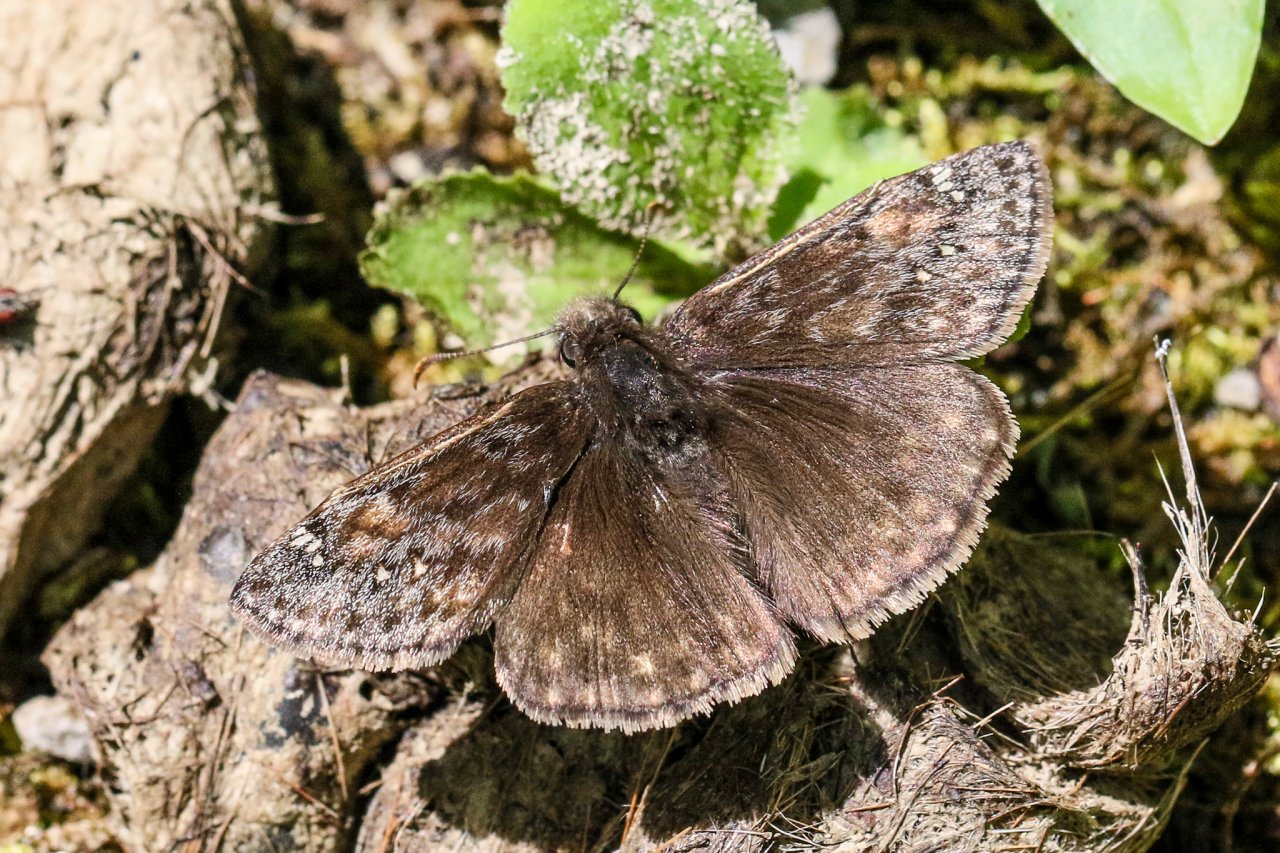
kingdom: Animalia
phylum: Arthropoda
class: Insecta
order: Lepidoptera
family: Hesperiidae
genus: Gesta
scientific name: Gesta
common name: Wild Indigo Duskywing
